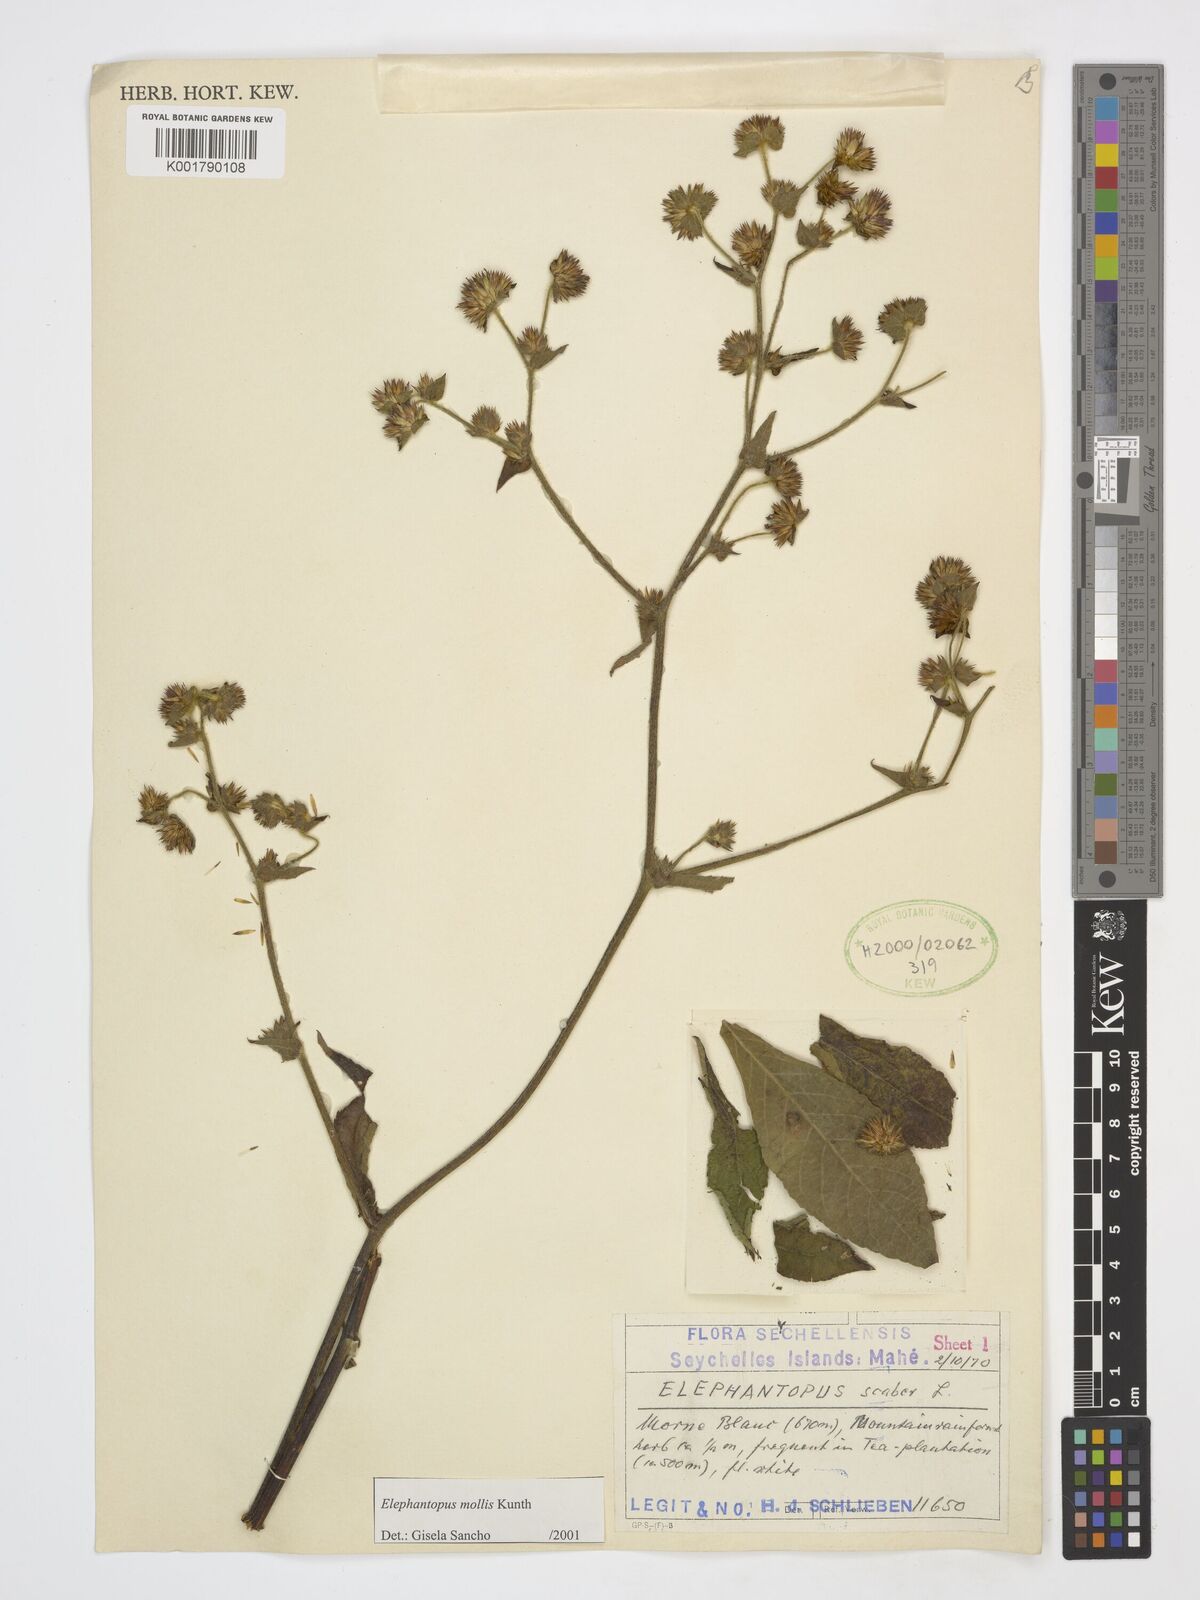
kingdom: Plantae
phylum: Tracheophyta
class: Magnoliopsida
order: Asterales
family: Asteraceae
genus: Elephantopus
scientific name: Elephantopus mollis
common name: Soft elephantsfoot
